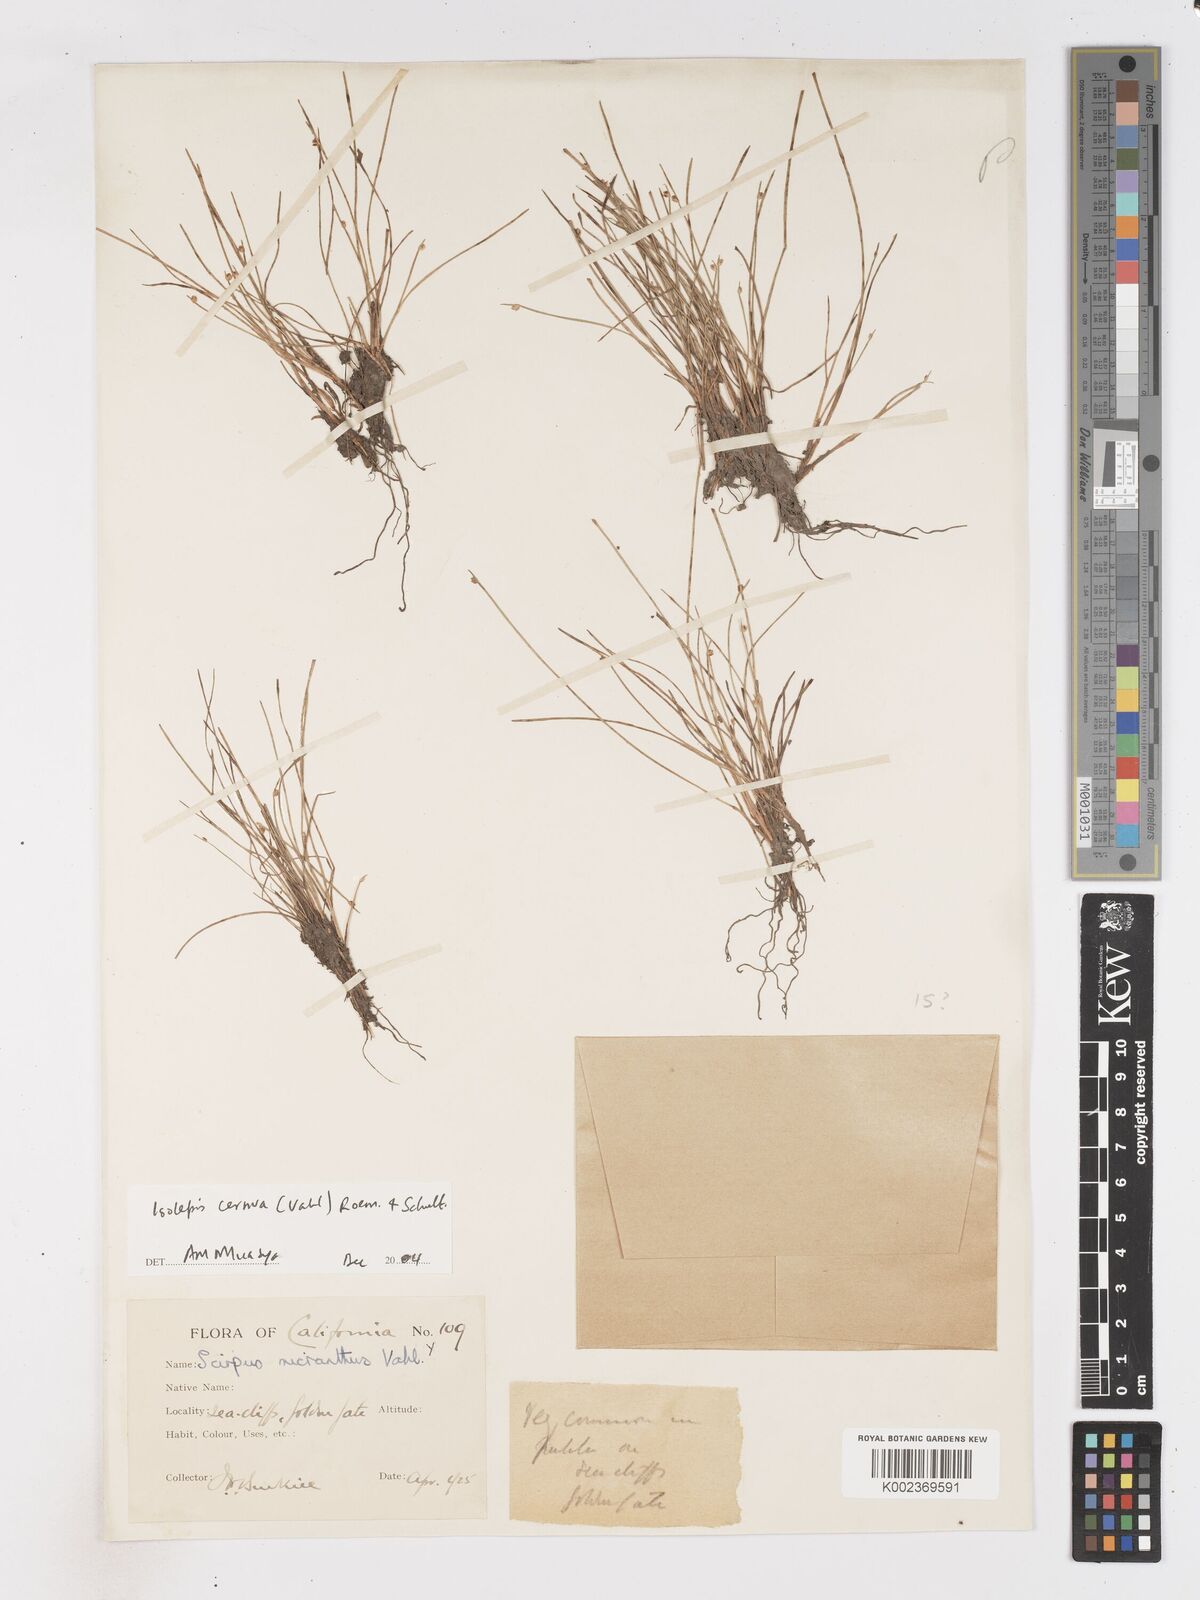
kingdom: Plantae
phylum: Tracheophyta
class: Liliopsida
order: Poales
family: Cyperaceae
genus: Isolepis
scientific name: Isolepis cernua
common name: Slender club-rush
